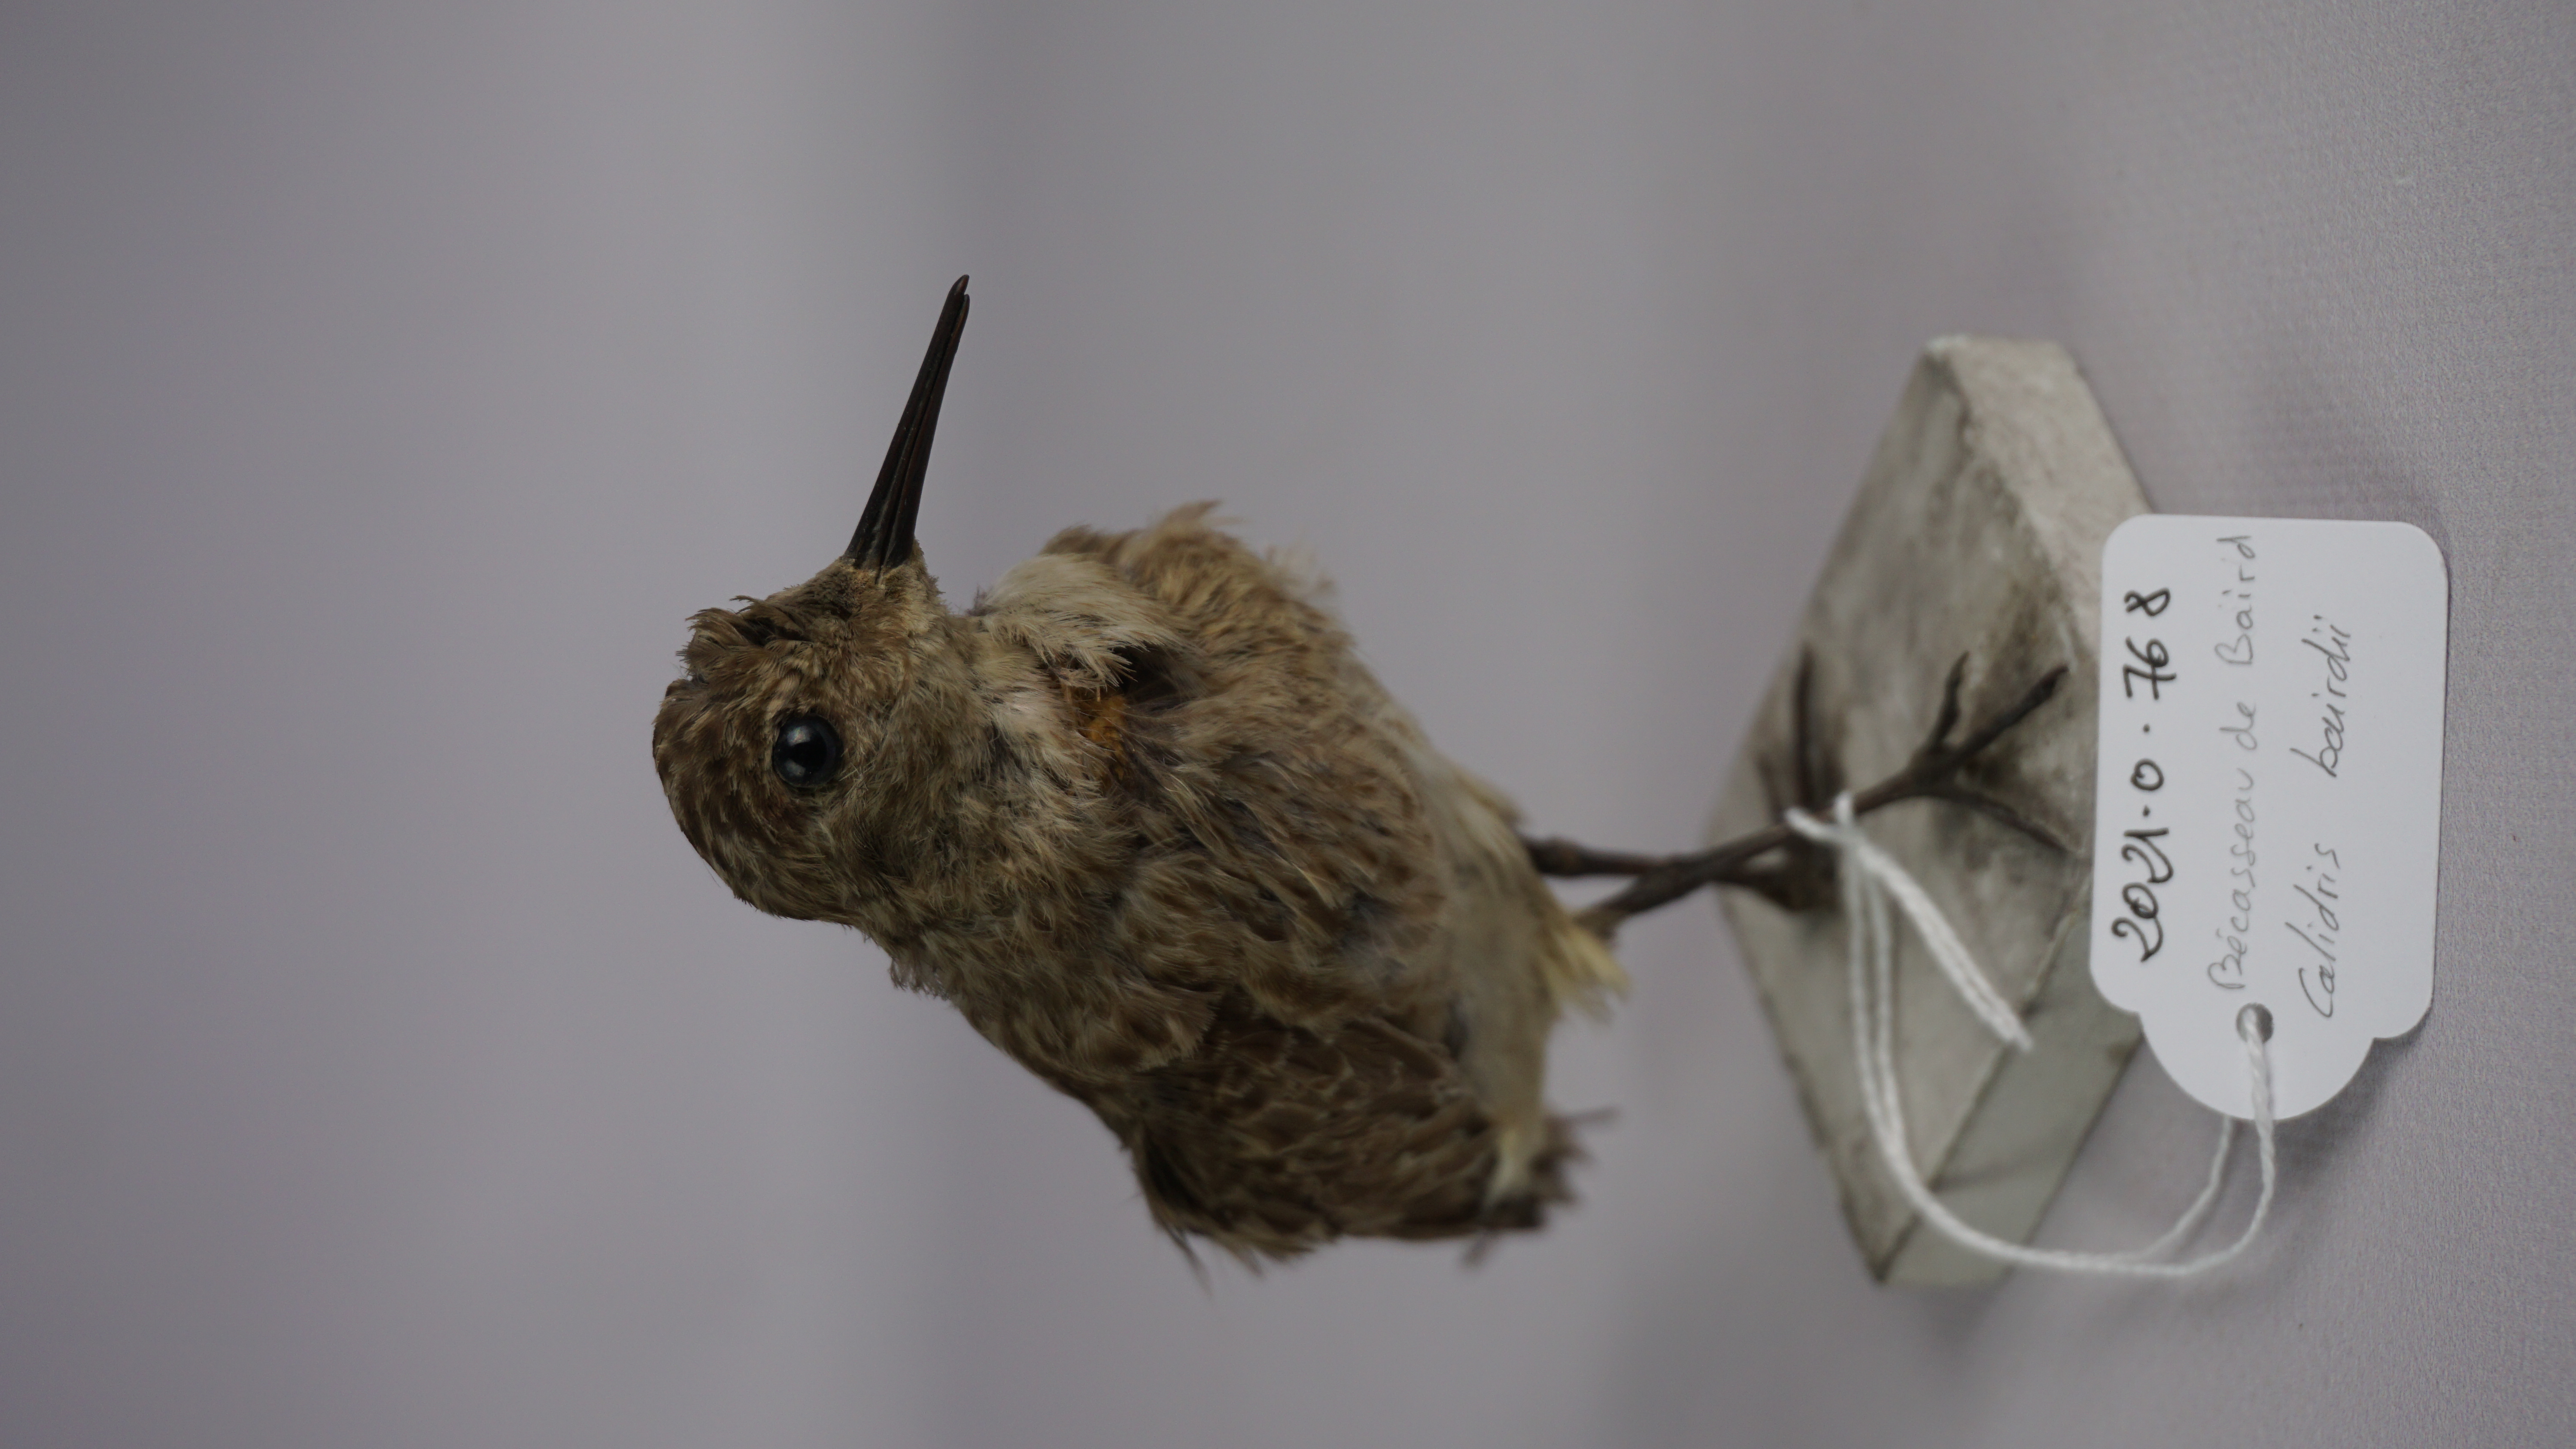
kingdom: Animalia
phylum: Chordata
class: Aves
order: Charadriiformes
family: Scolopacidae
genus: Calidris
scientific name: Calidris bairdii
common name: Baird's sandpiper
